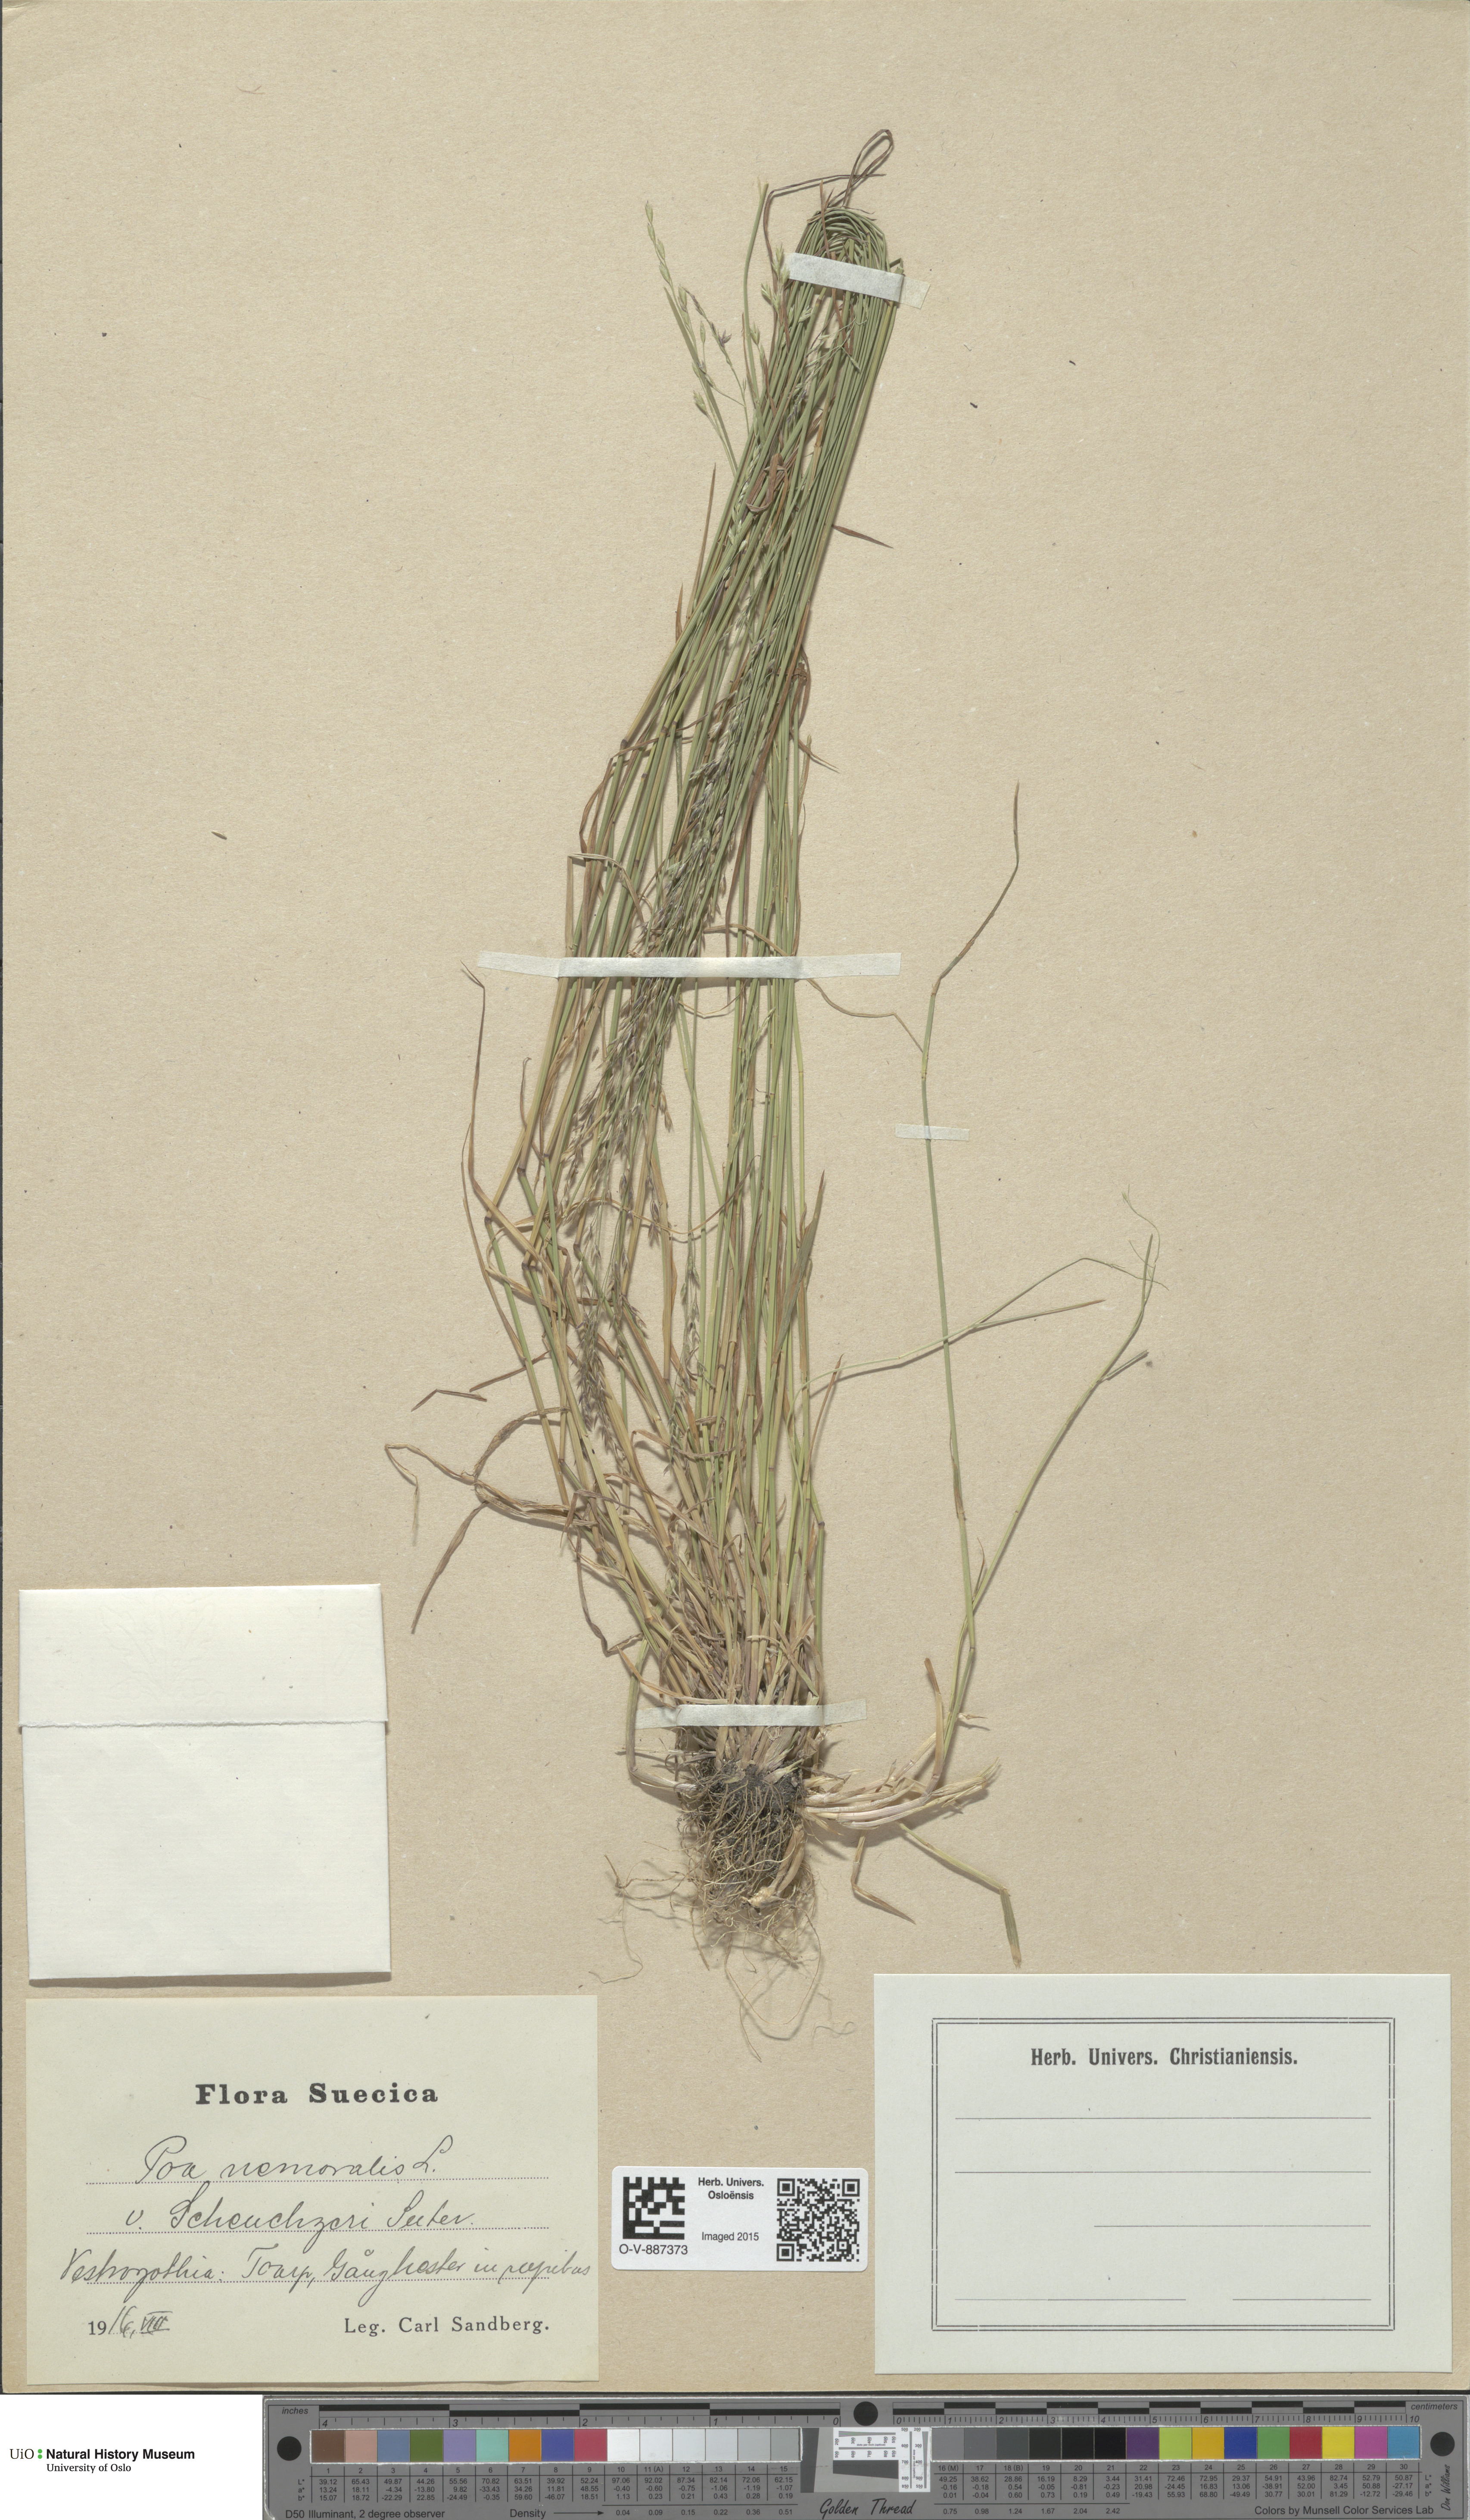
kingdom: Plantae
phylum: Tracheophyta
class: Liliopsida
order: Poales
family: Poaceae
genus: Poa
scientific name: Poa nemoralis
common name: Wood bluegrass
